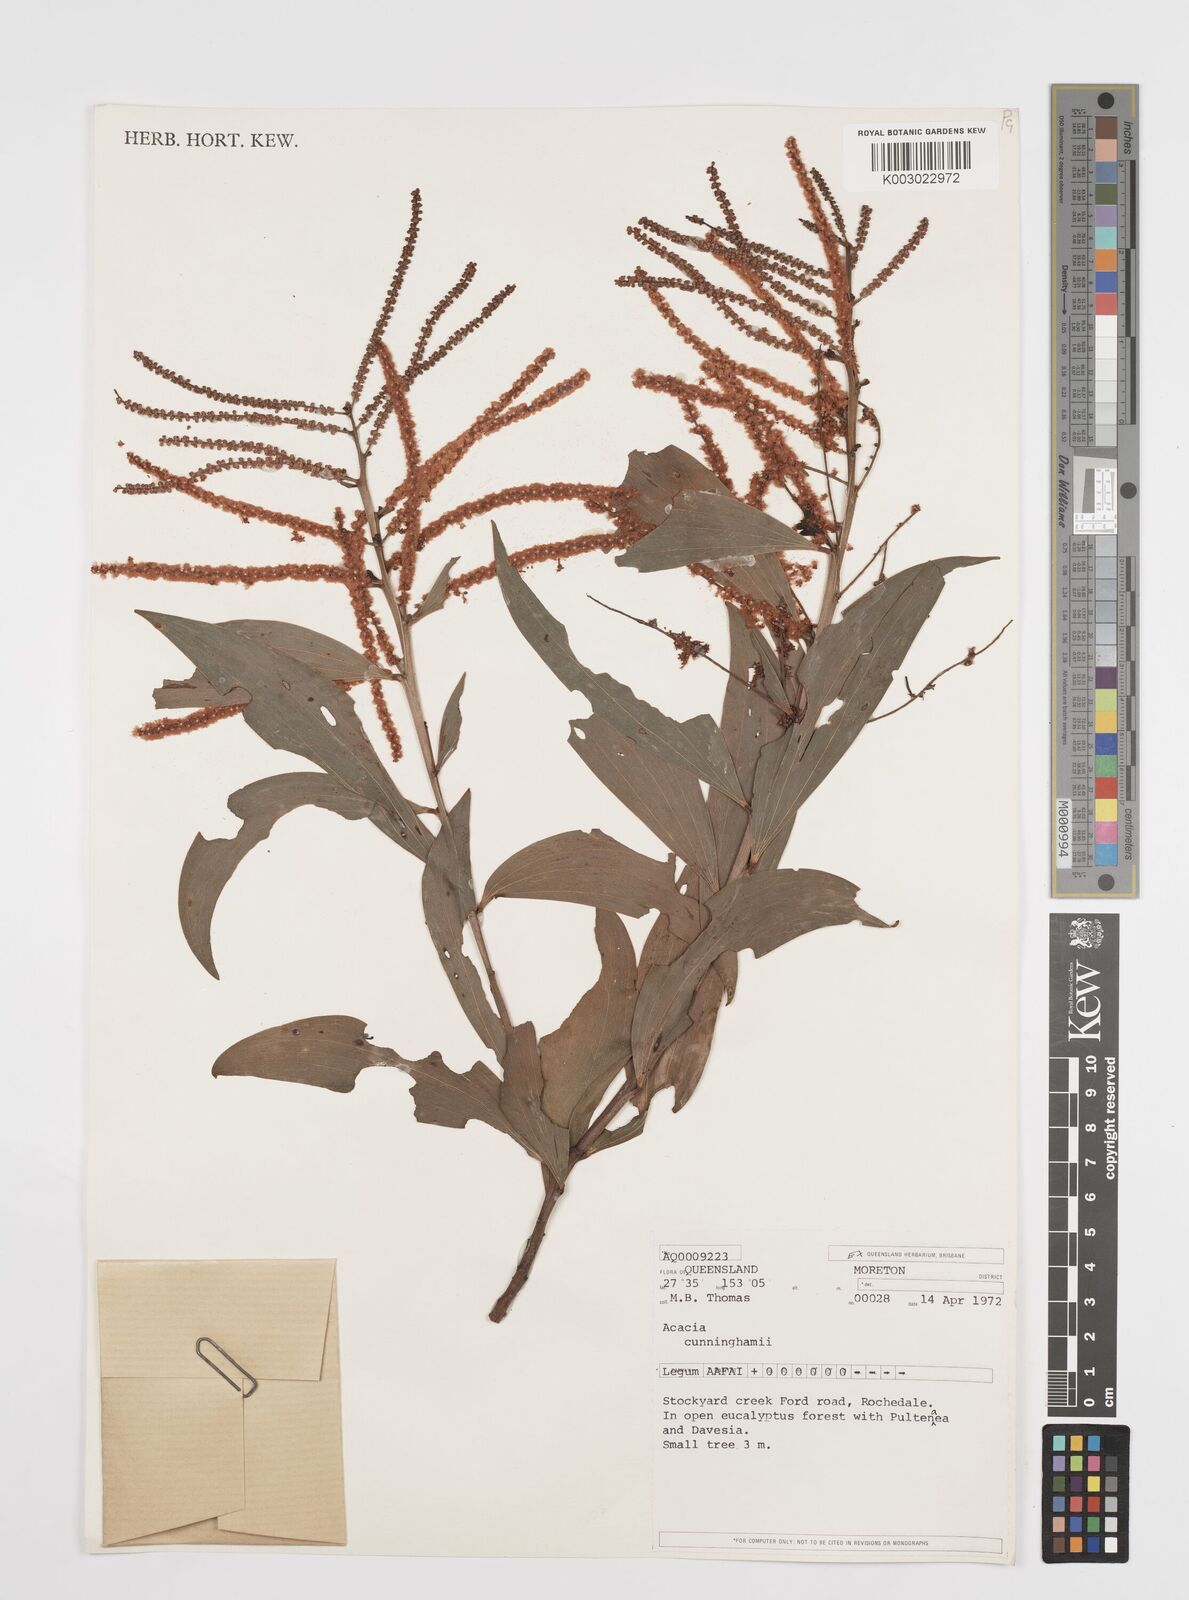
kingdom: Plantae
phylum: Tracheophyta
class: Magnoliopsida
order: Fabales
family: Fabaceae
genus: Acacia
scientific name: Acacia longispicata
